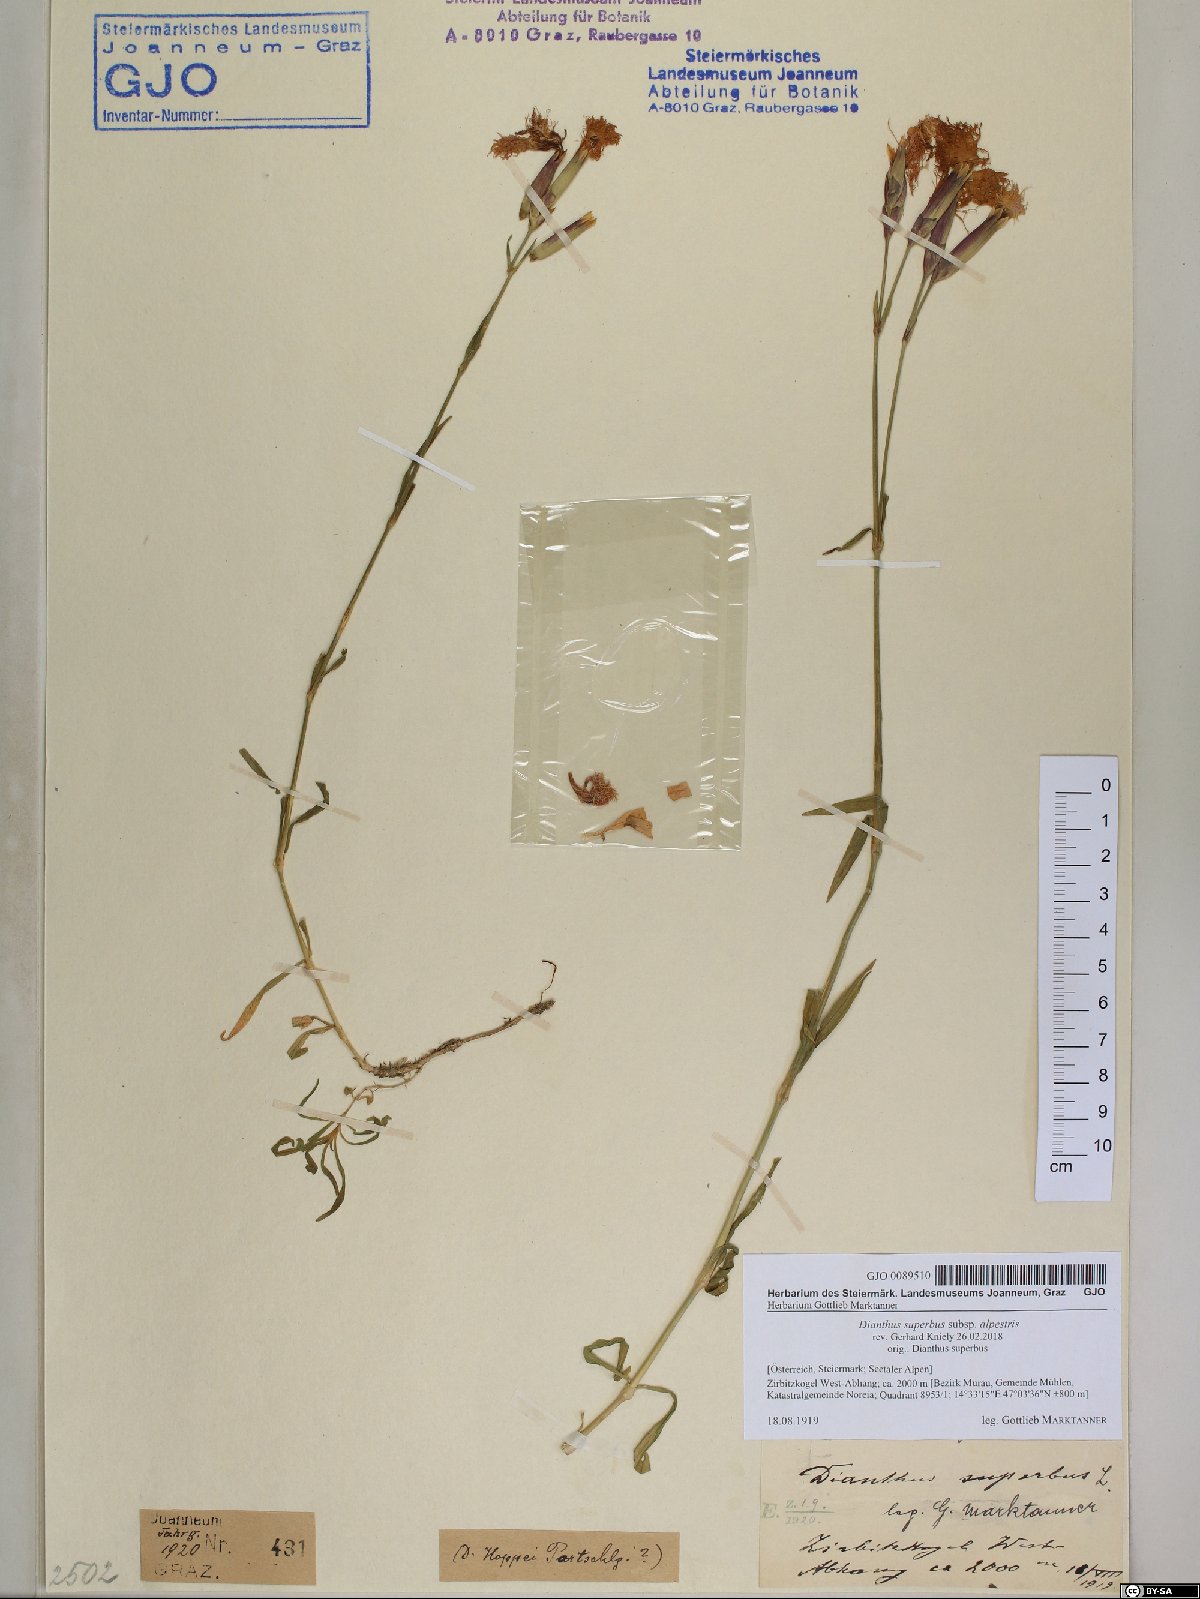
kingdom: Plantae
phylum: Tracheophyta
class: Magnoliopsida
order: Caryophyllales
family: Caryophyllaceae
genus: Dianthus
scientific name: Dianthus superbus
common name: Fringed pink
